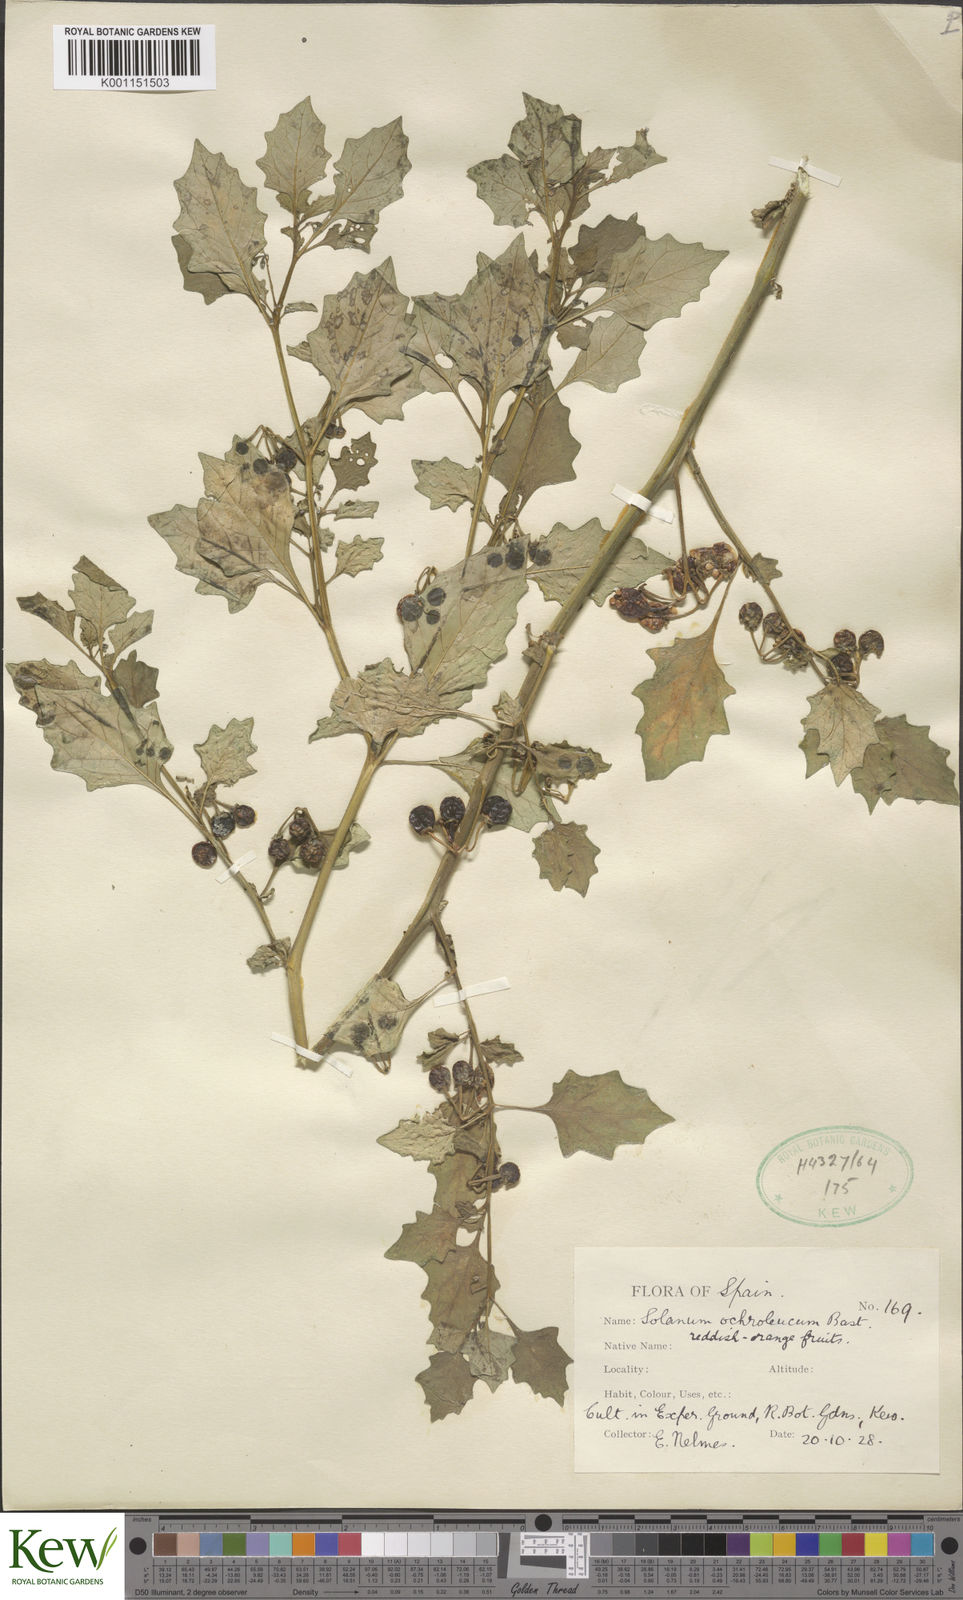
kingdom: Plantae
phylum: Tracheophyta
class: Magnoliopsida
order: Solanales
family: Solanaceae
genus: Solanum
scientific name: Solanum villosum
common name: Red nightshade
